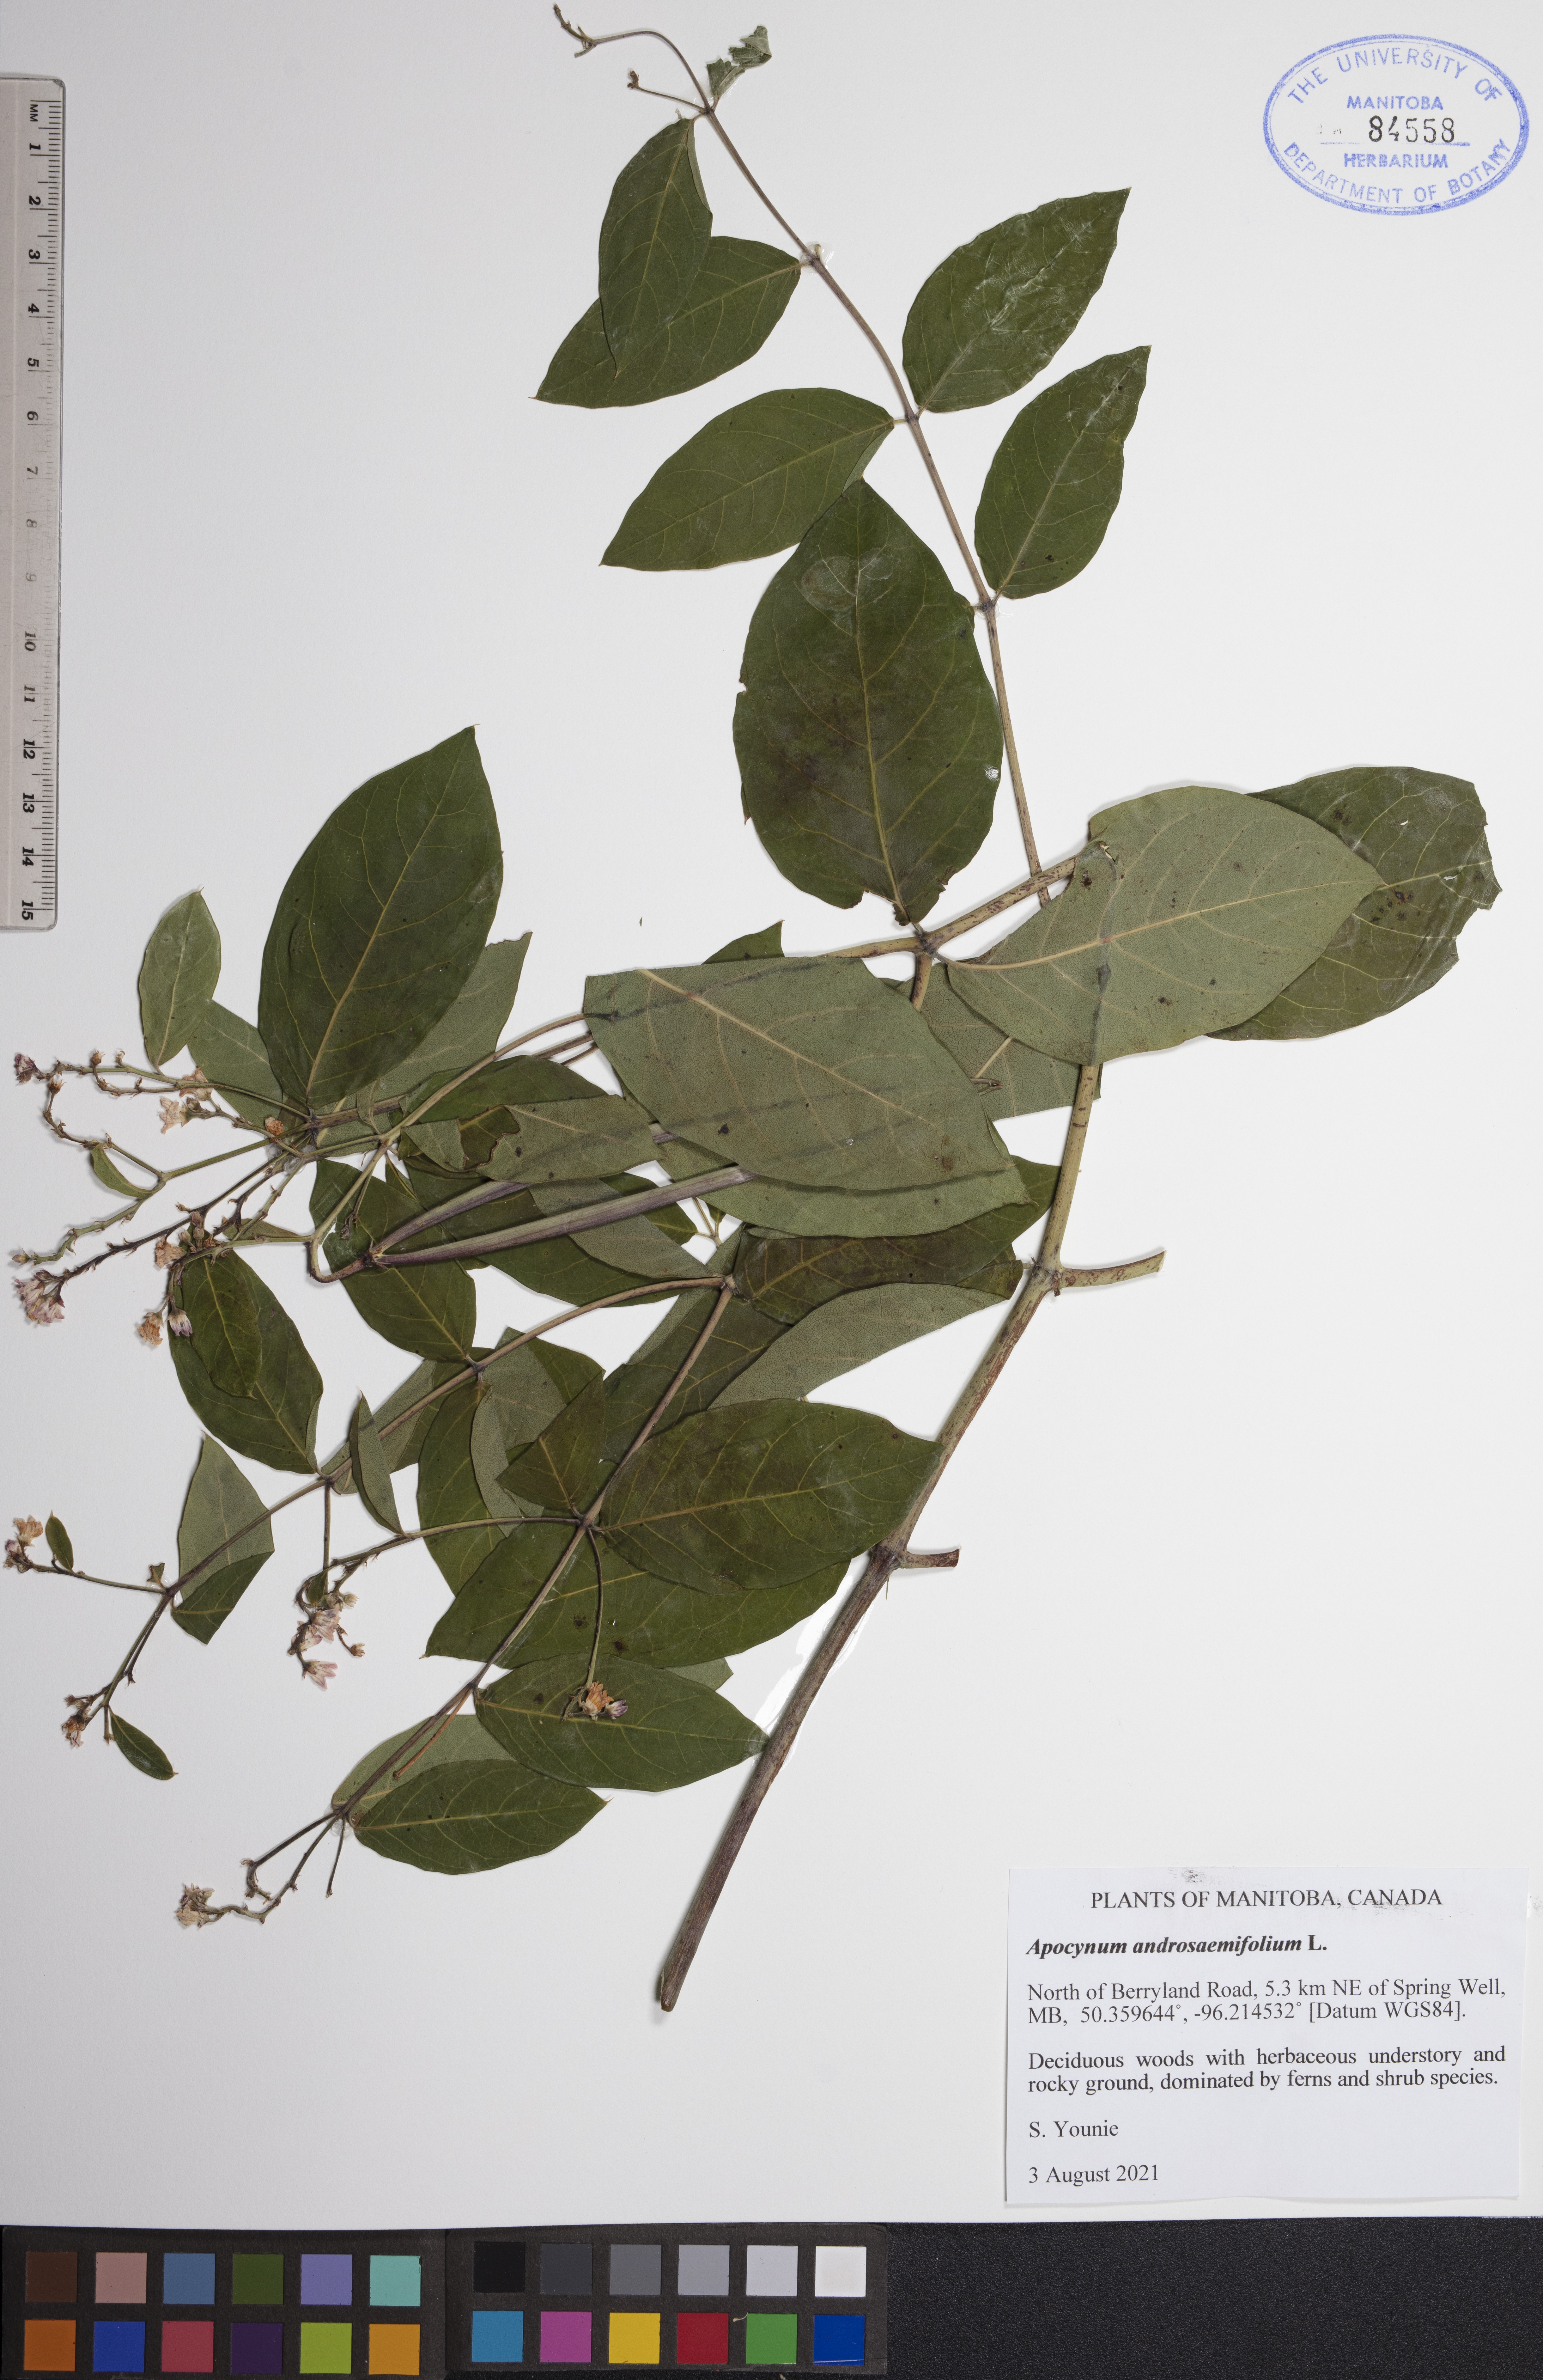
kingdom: Plantae
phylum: Tracheophyta
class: Magnoliopsida
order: Gentianales
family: Apocynaceae
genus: Apocynum
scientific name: Apocynum androsaemifolium
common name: Spreading dogbane
